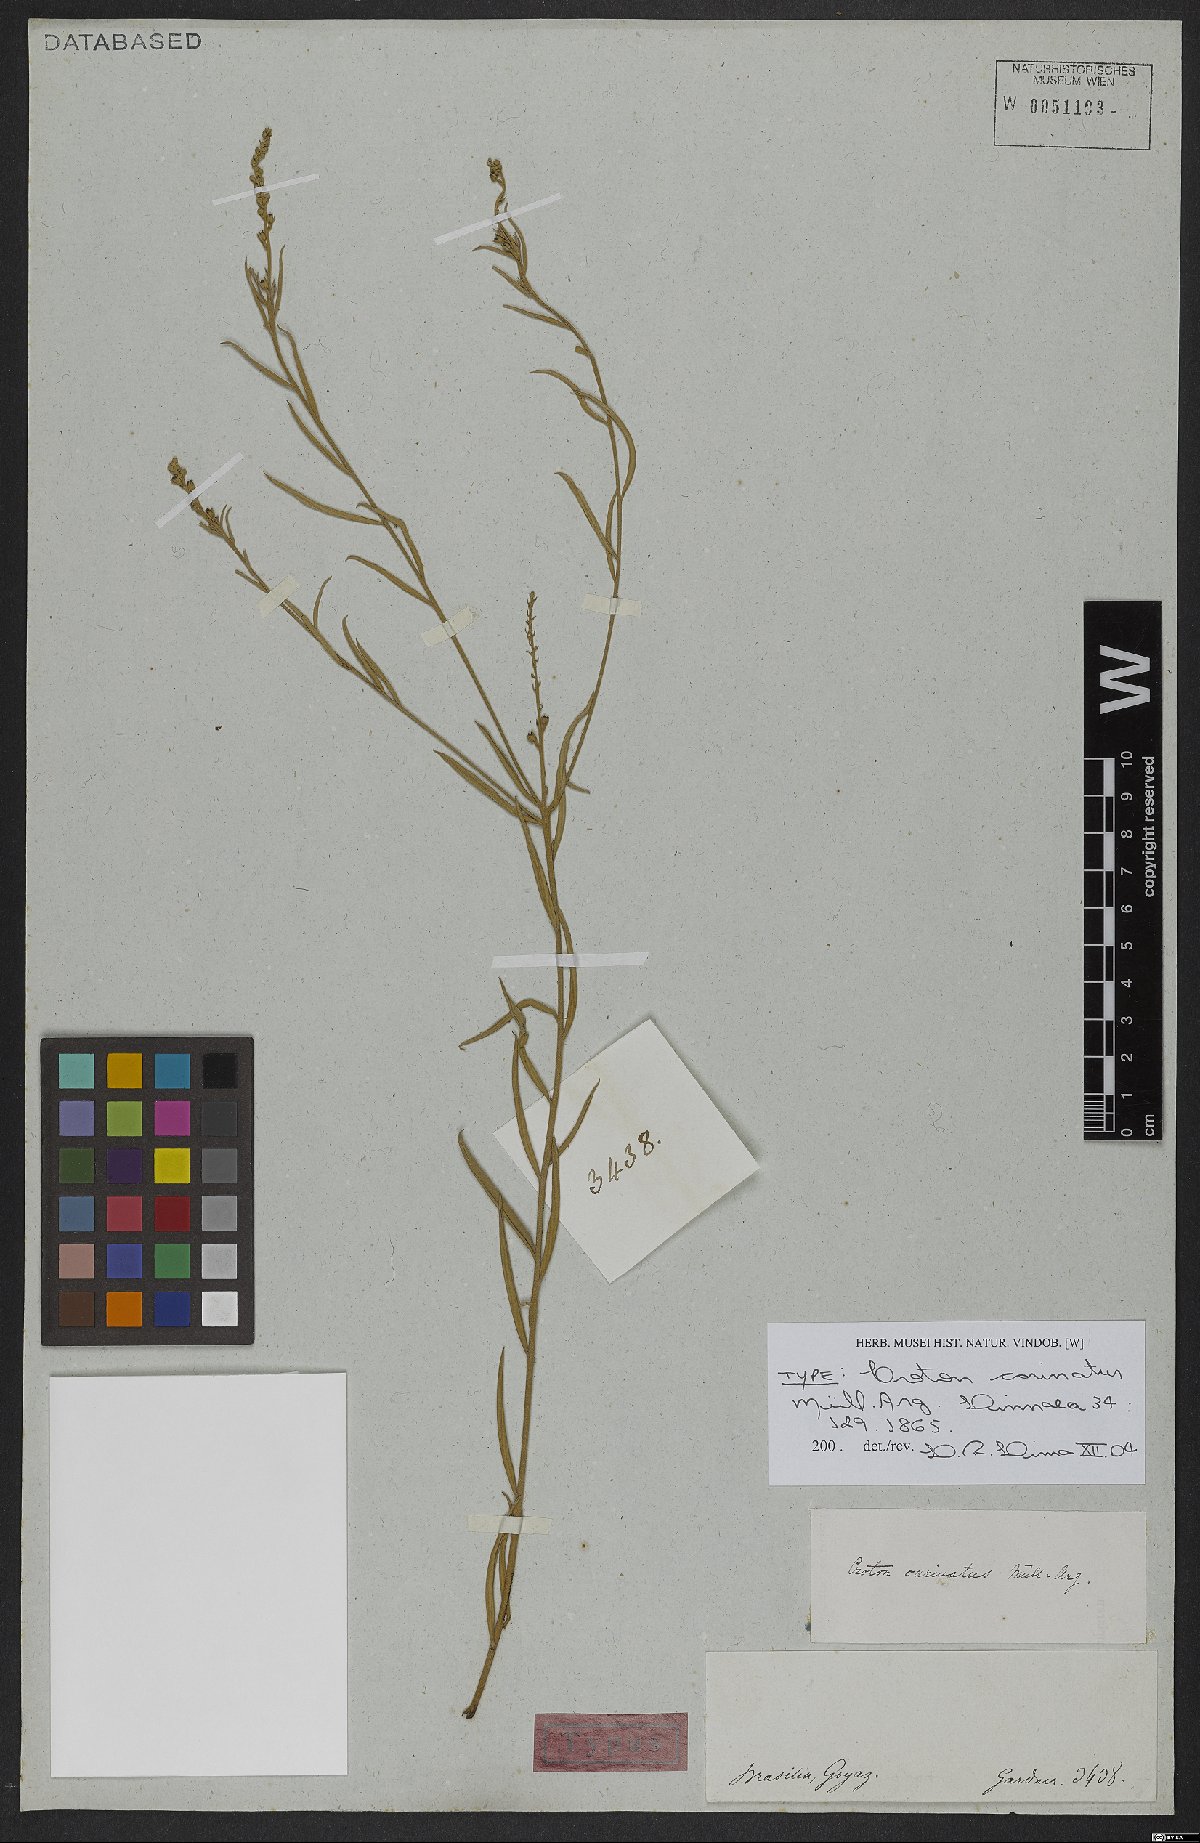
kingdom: Plantae
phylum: Tracheophyta
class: Magnoliopsida
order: Malpighiales
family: Euphorbiaceae
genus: Croton
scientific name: Croton carinatus
